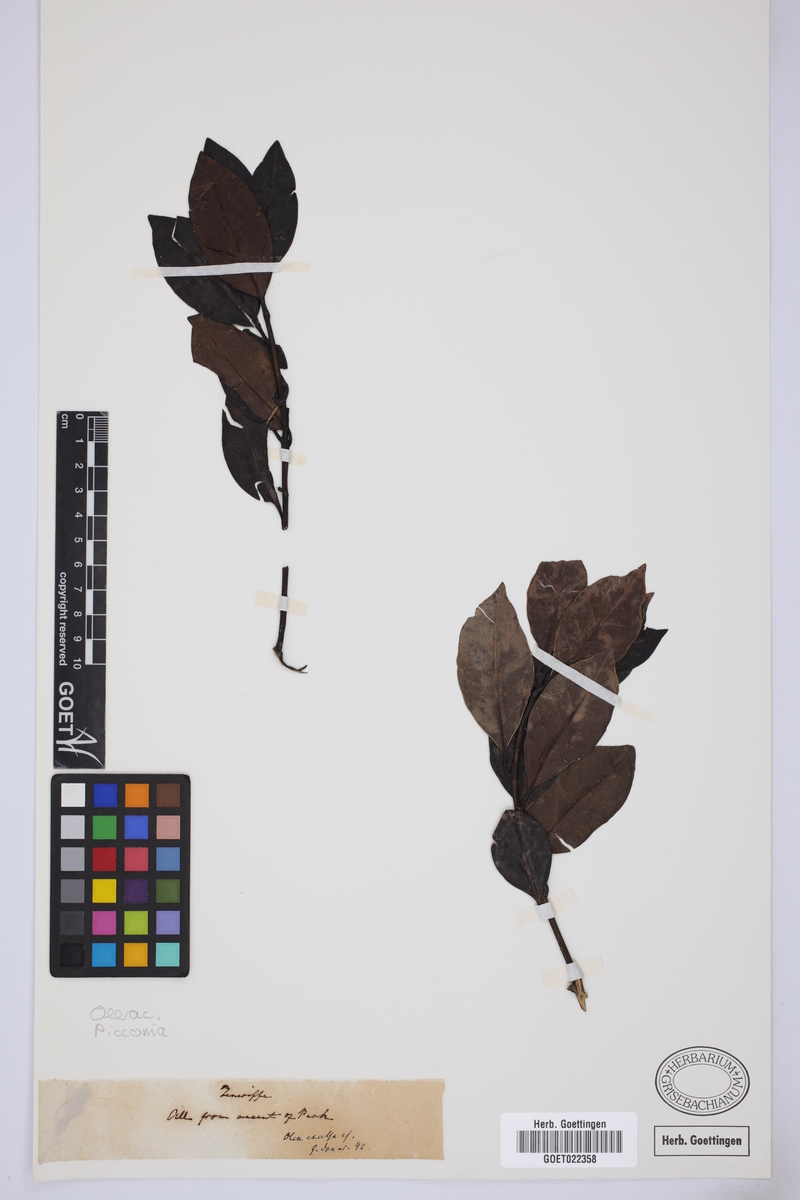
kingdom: Plantae
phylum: Tracheophyta
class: Magnoliopsida
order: Lamiales
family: Oleaceae
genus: Picconia
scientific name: Picconia
